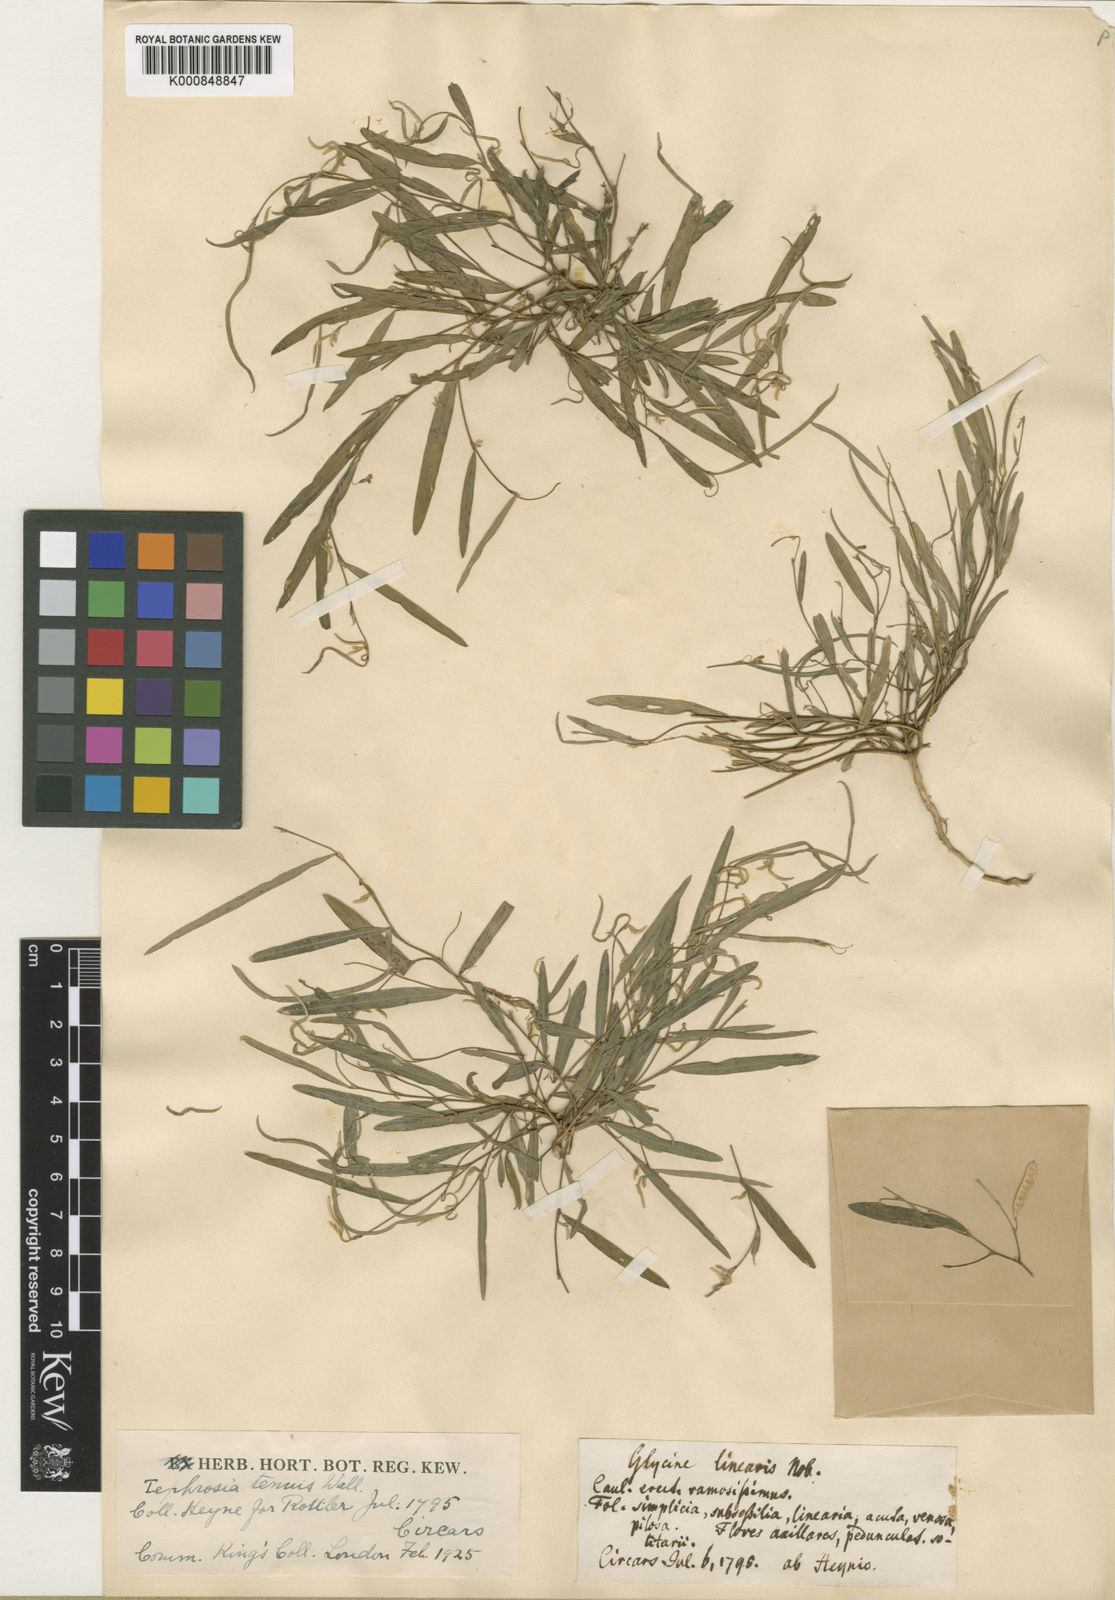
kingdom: Plantae
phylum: Tracheophyta
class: Magnoliopsida
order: Fabales
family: Fabaceae
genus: Tephrosia
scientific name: Tephrosia
